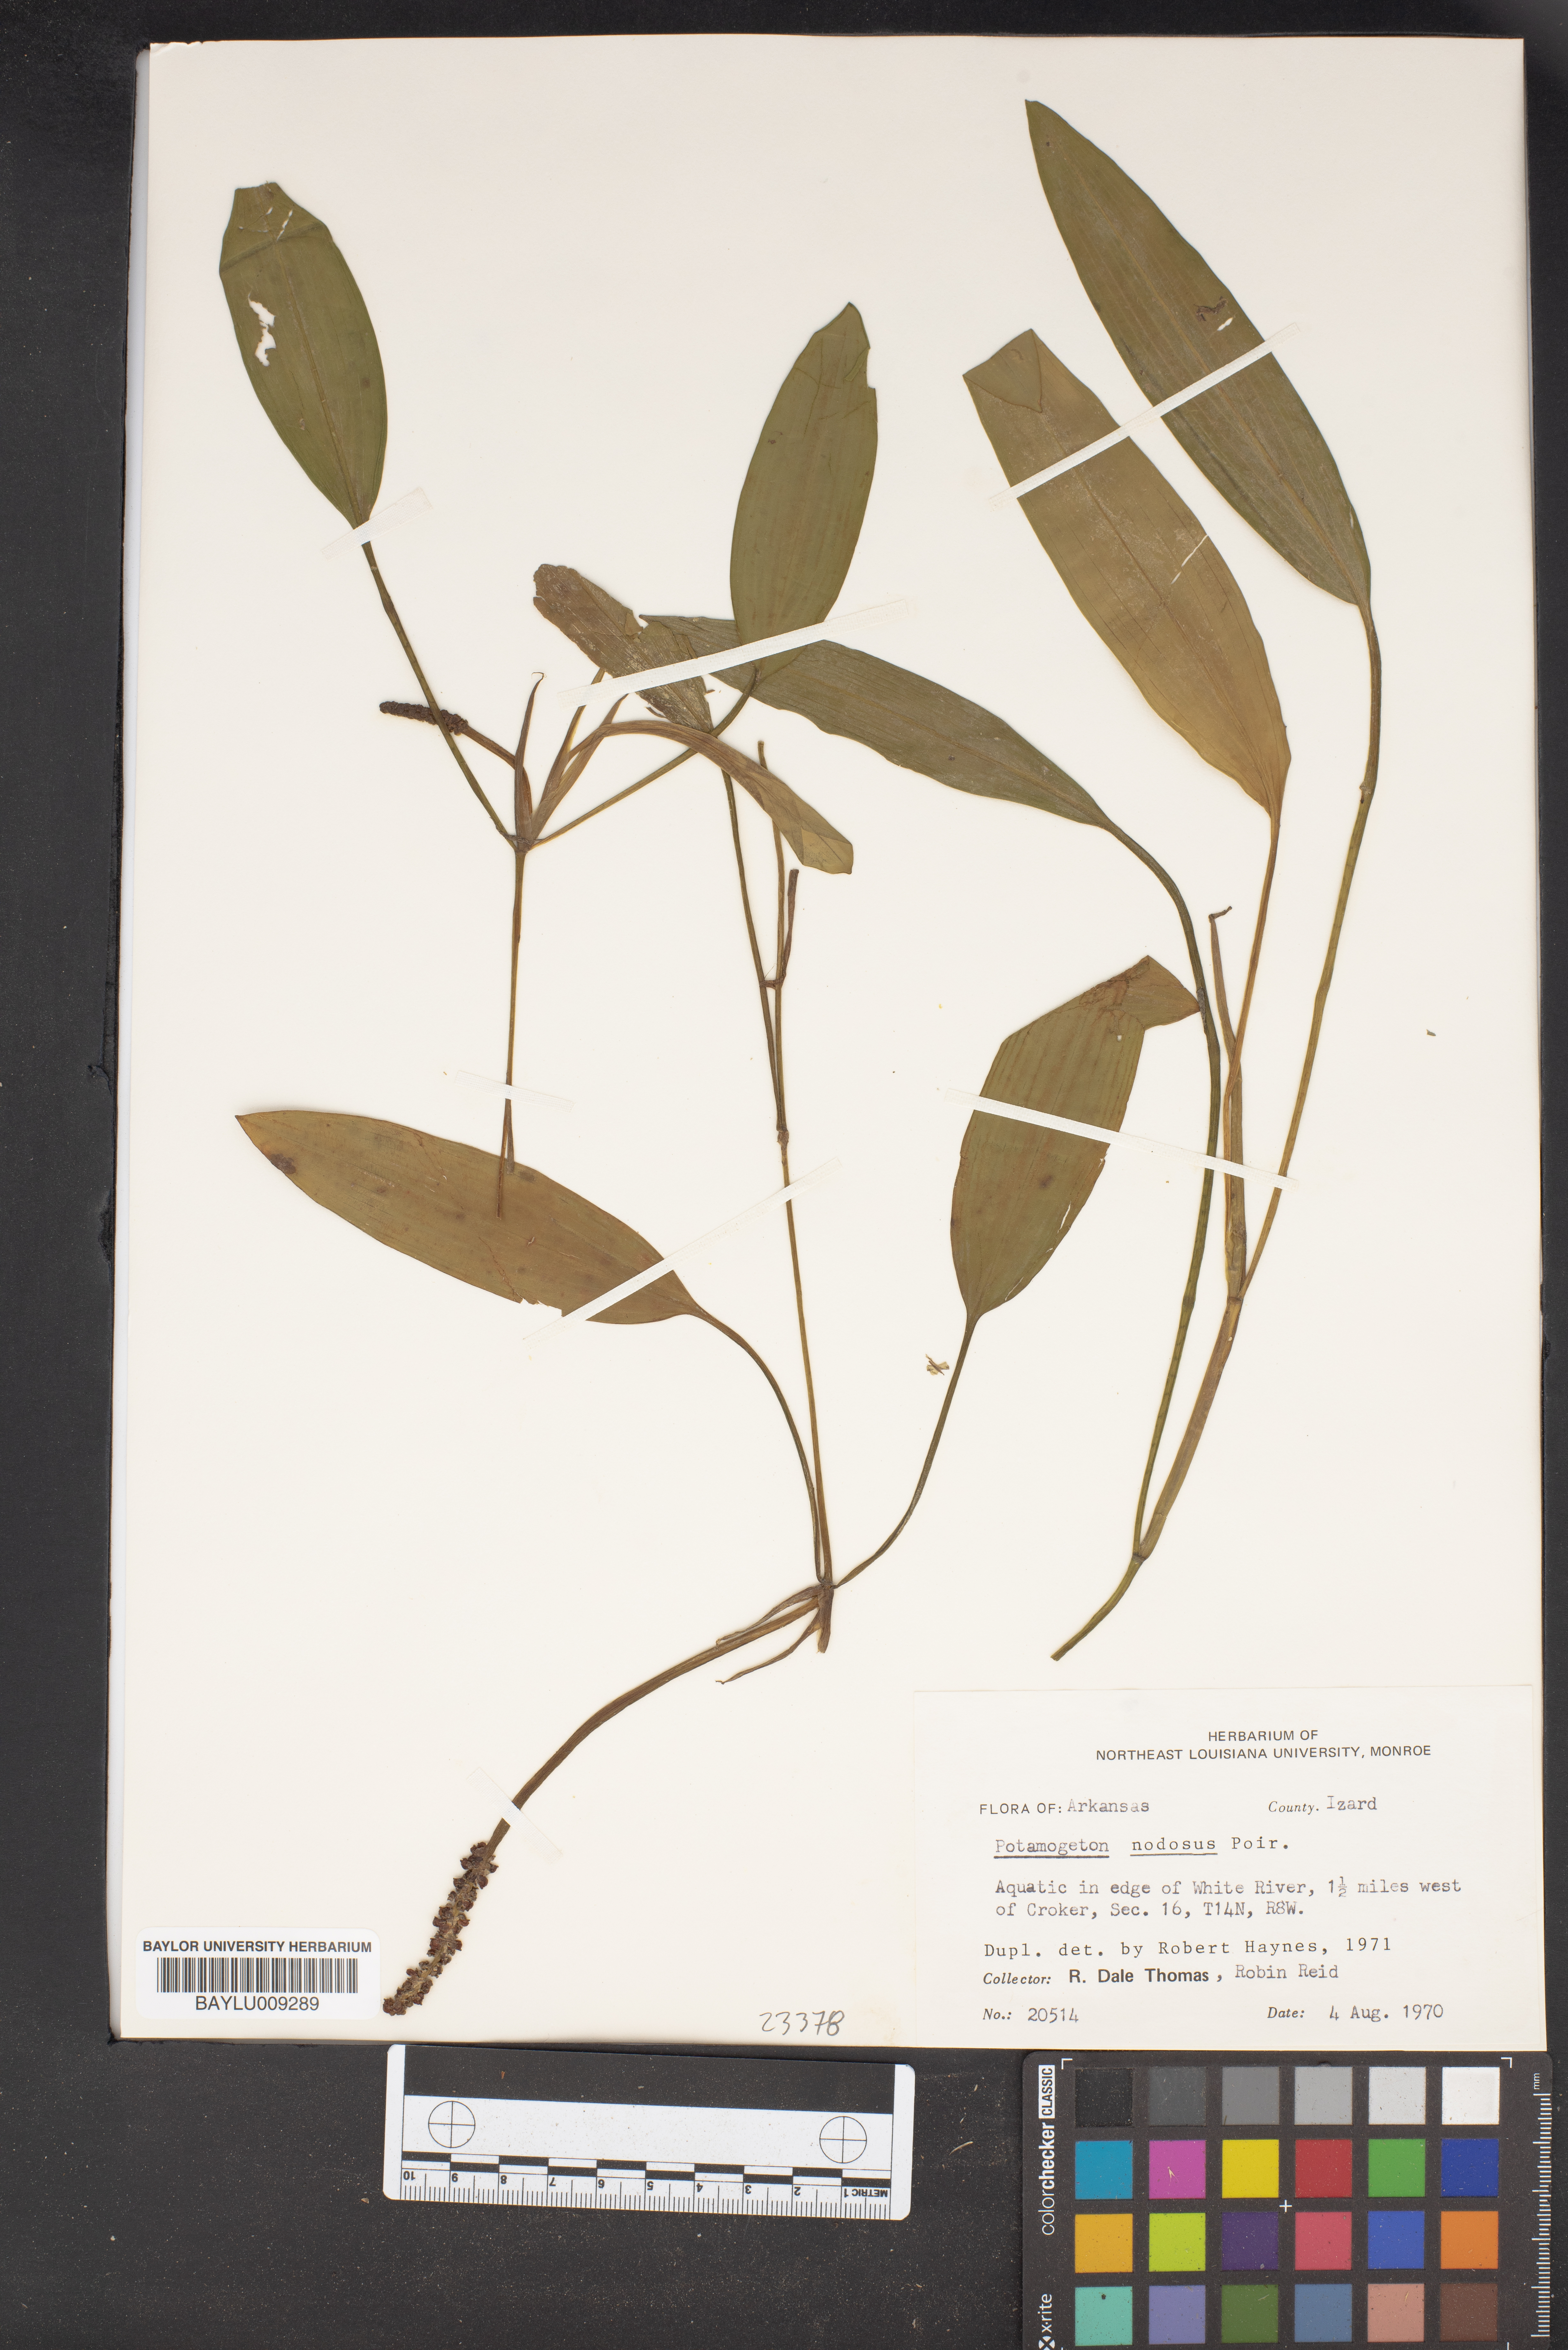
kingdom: Plantae
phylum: Tracheophyta
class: Liliopsida
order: Alismatales
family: Potamogetonaceae
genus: Potamogeton
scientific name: Potamogeton nodosus
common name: Loddon pondweed
